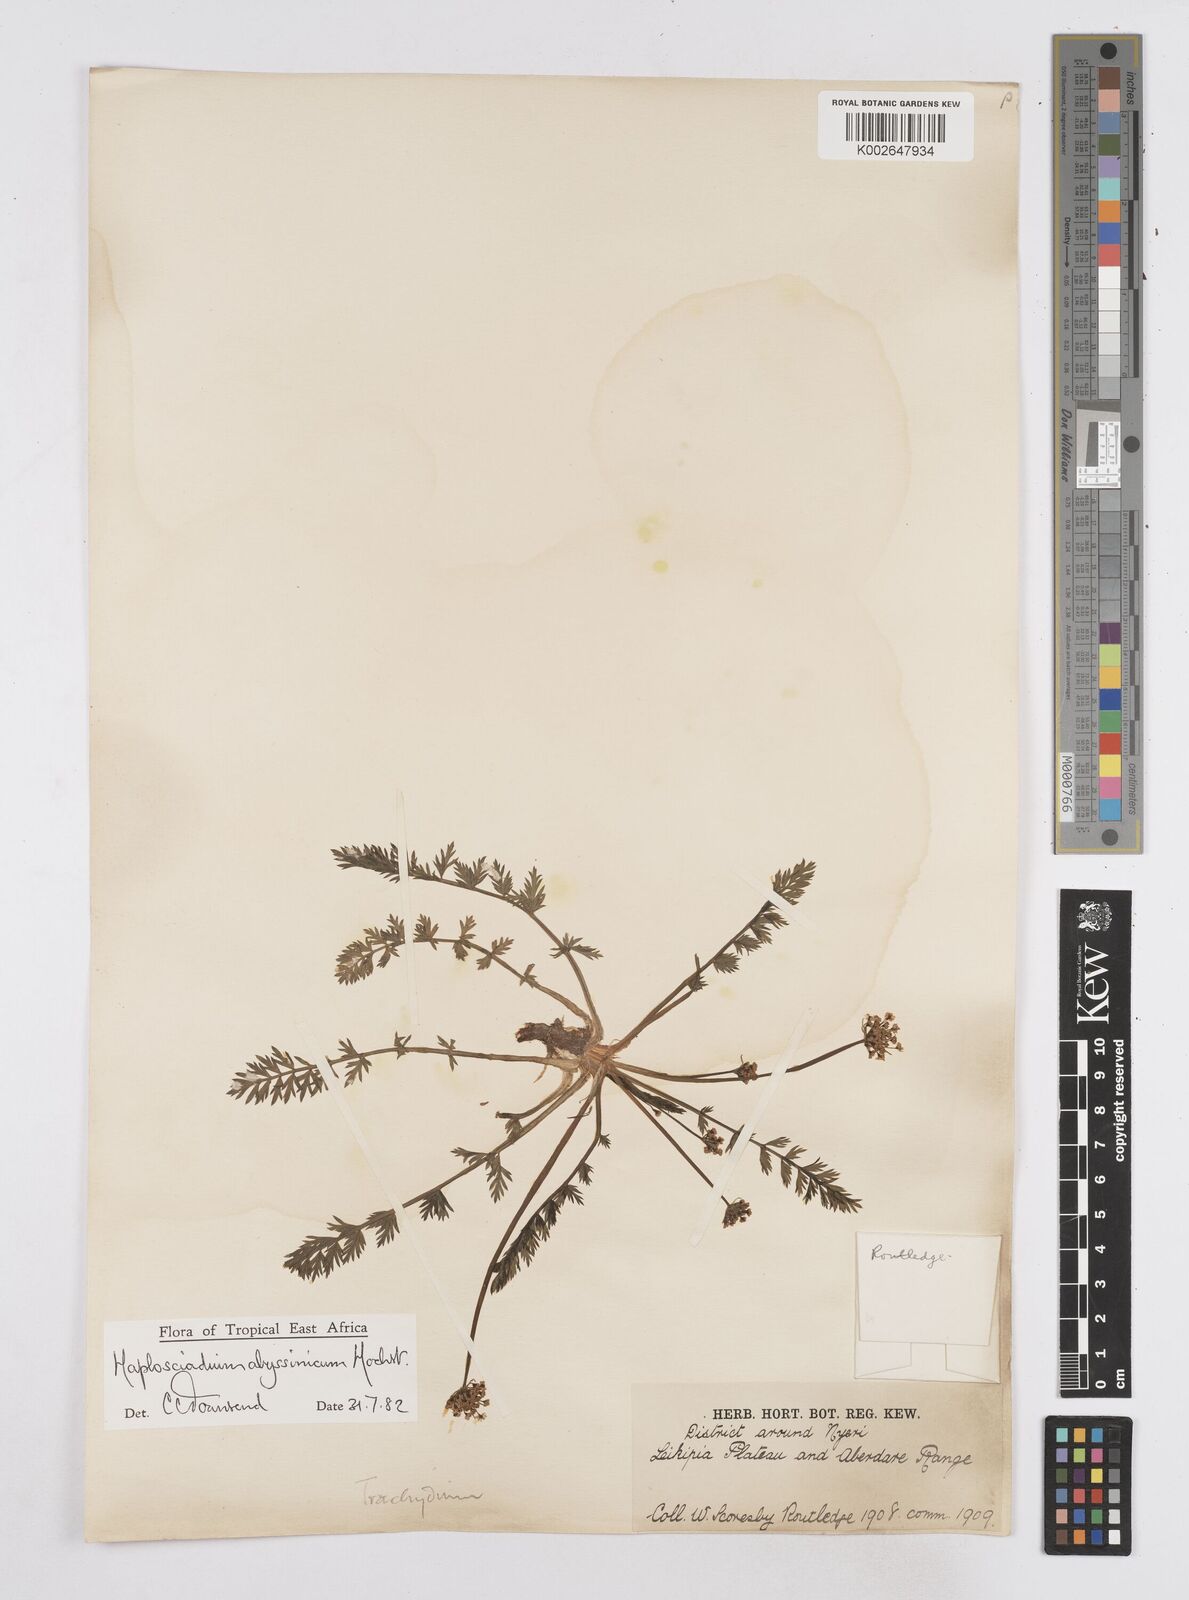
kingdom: Plantae
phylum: Tracheophyta
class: Magnoliopsida
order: Apiales
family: Apiaceae
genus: Haplosciadium
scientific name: Haplosciadium abyssinicum
